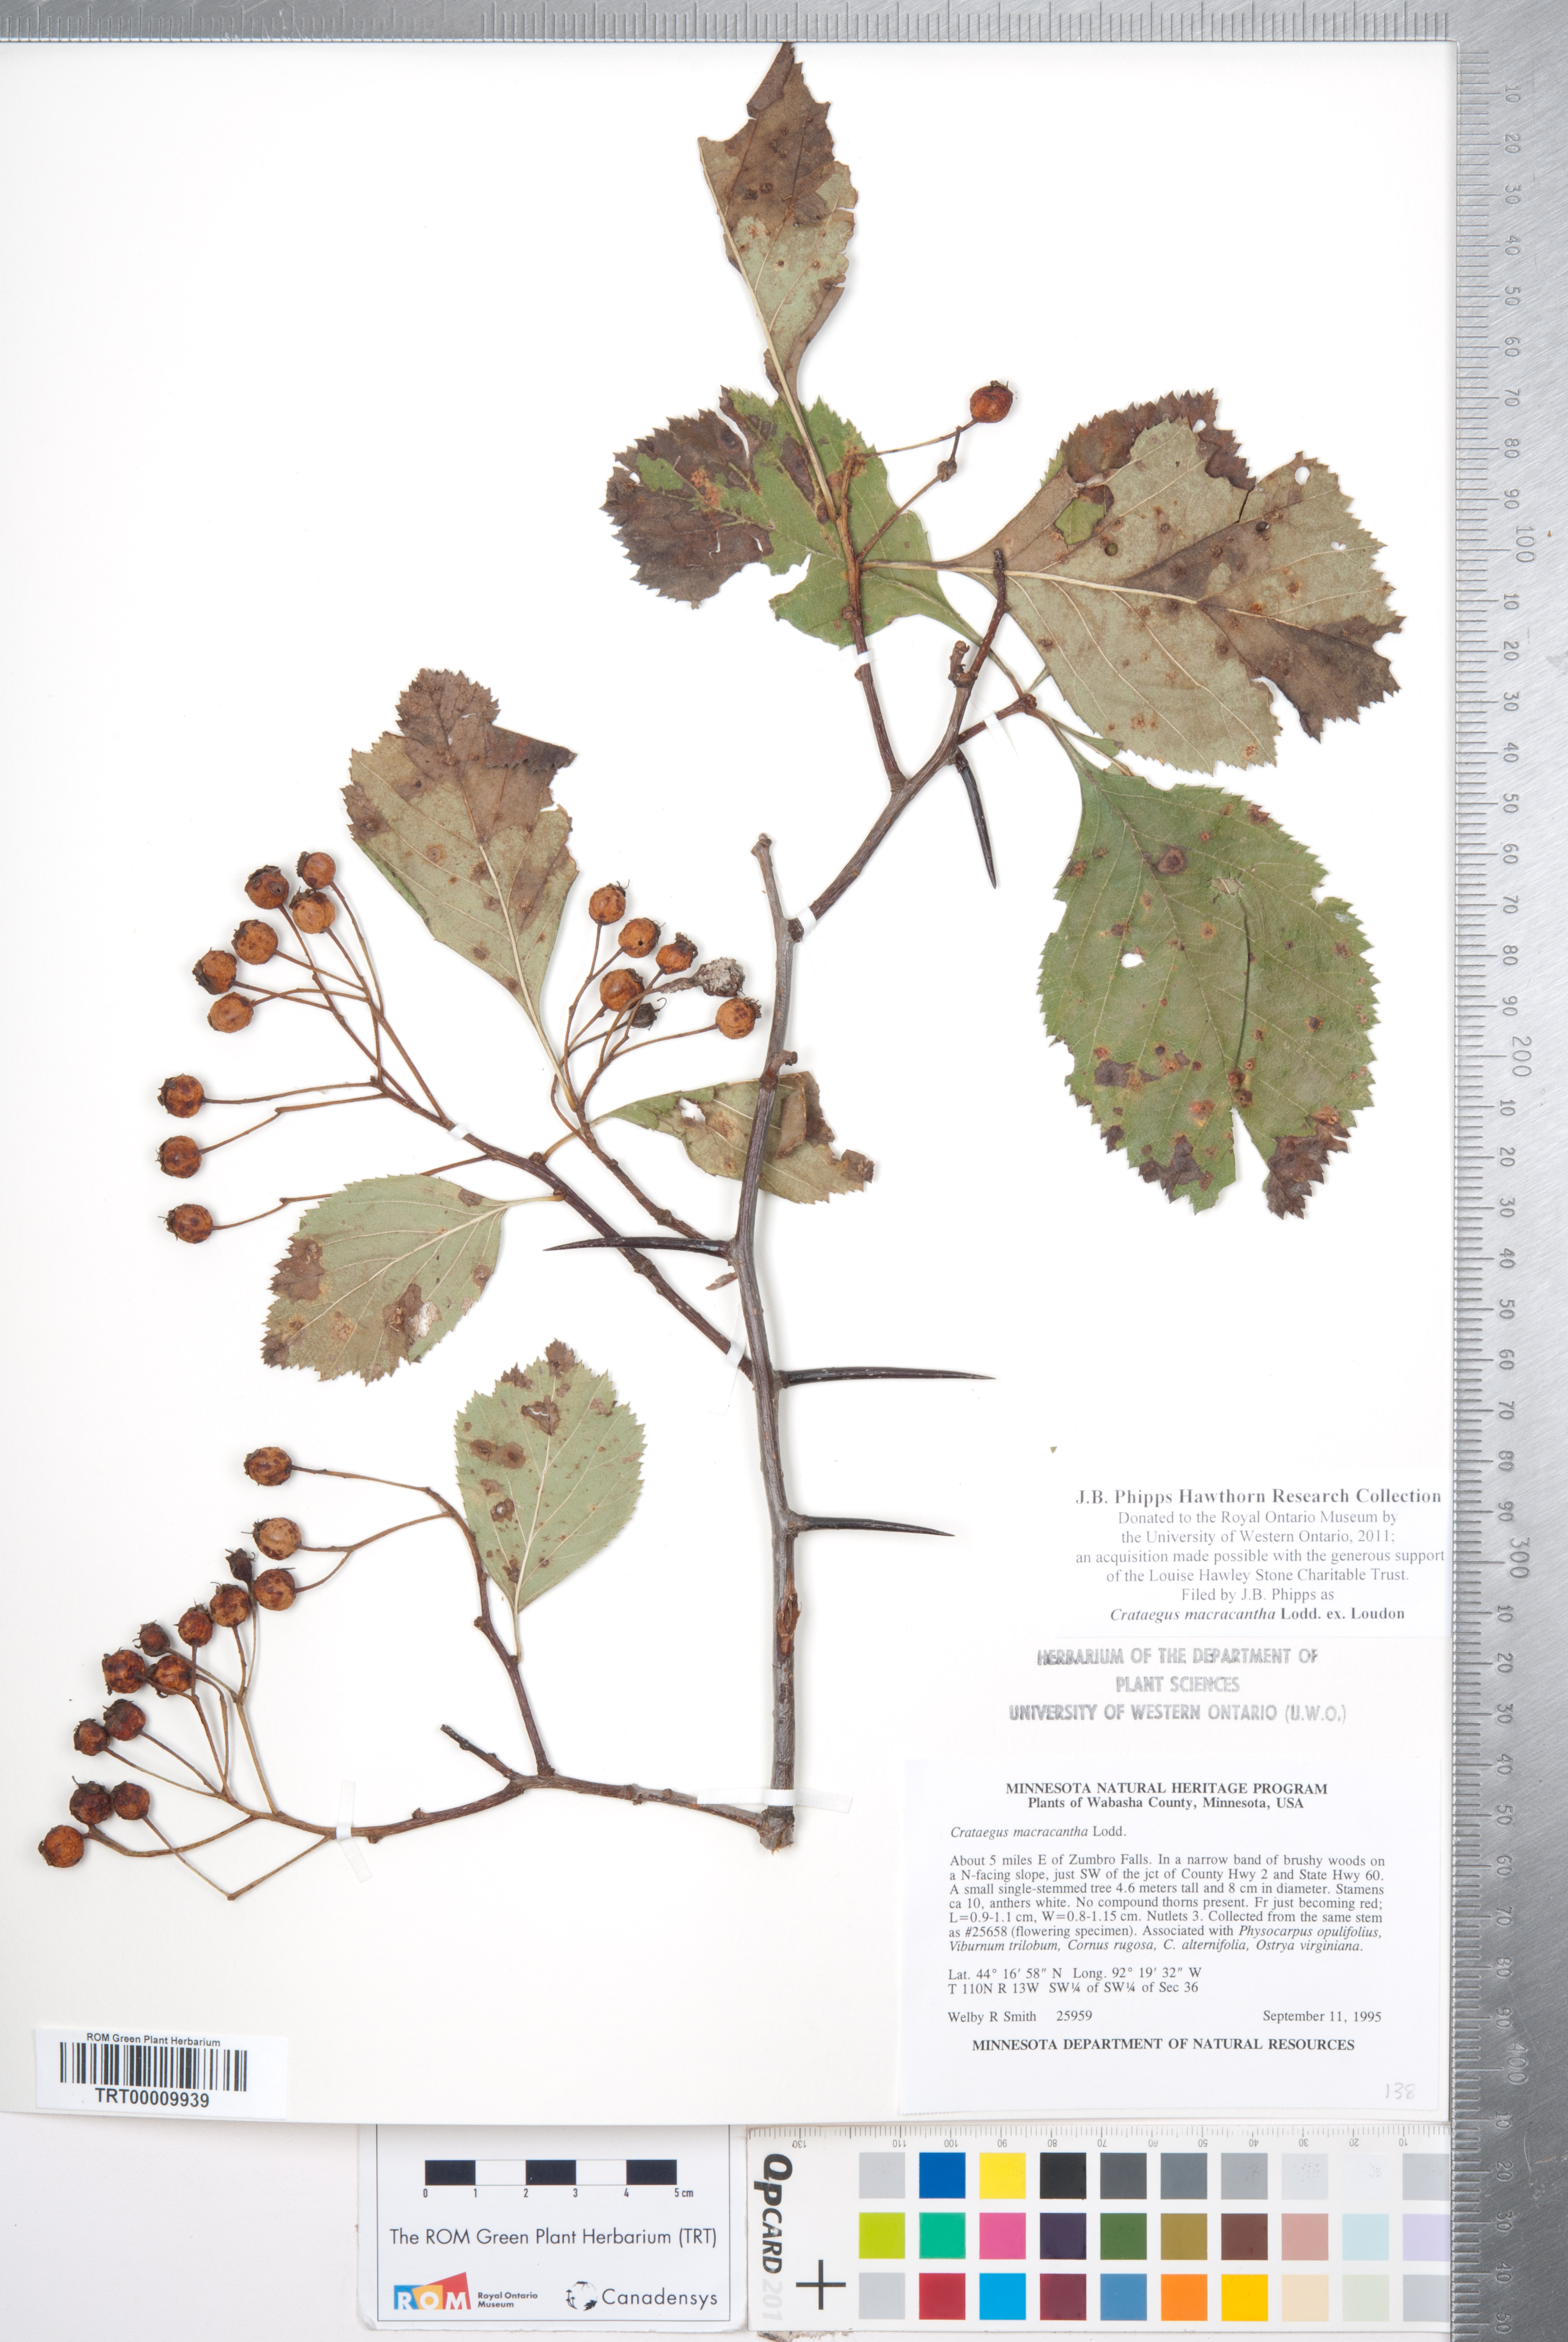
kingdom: Plantae
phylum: Tracheophyta
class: Magnoliopsida
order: Rosales
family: Rosaceae
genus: Crataegus
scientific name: Crataegus macracantha
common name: Large-thorn hawthorn
